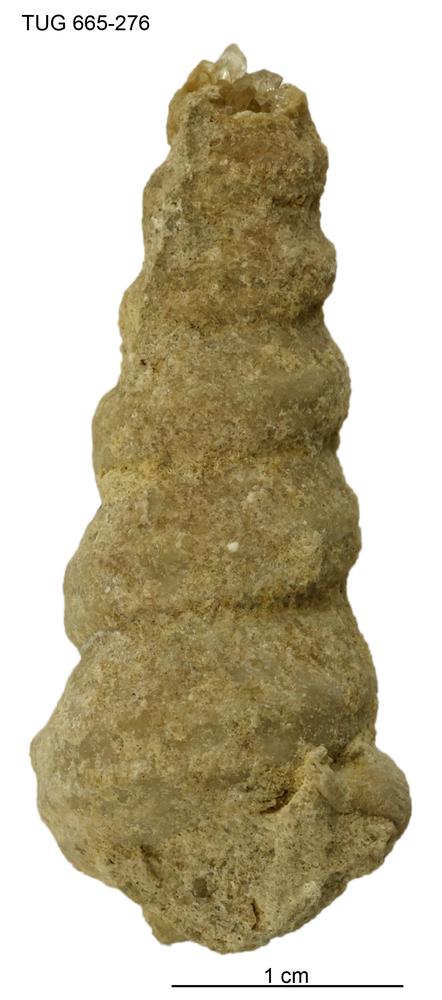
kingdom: Animalia
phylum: Mollusca
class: Gastropoda
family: Lophospiridae
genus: Ectomaria
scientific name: Ectomaria Murchisonia nieszkowskii
